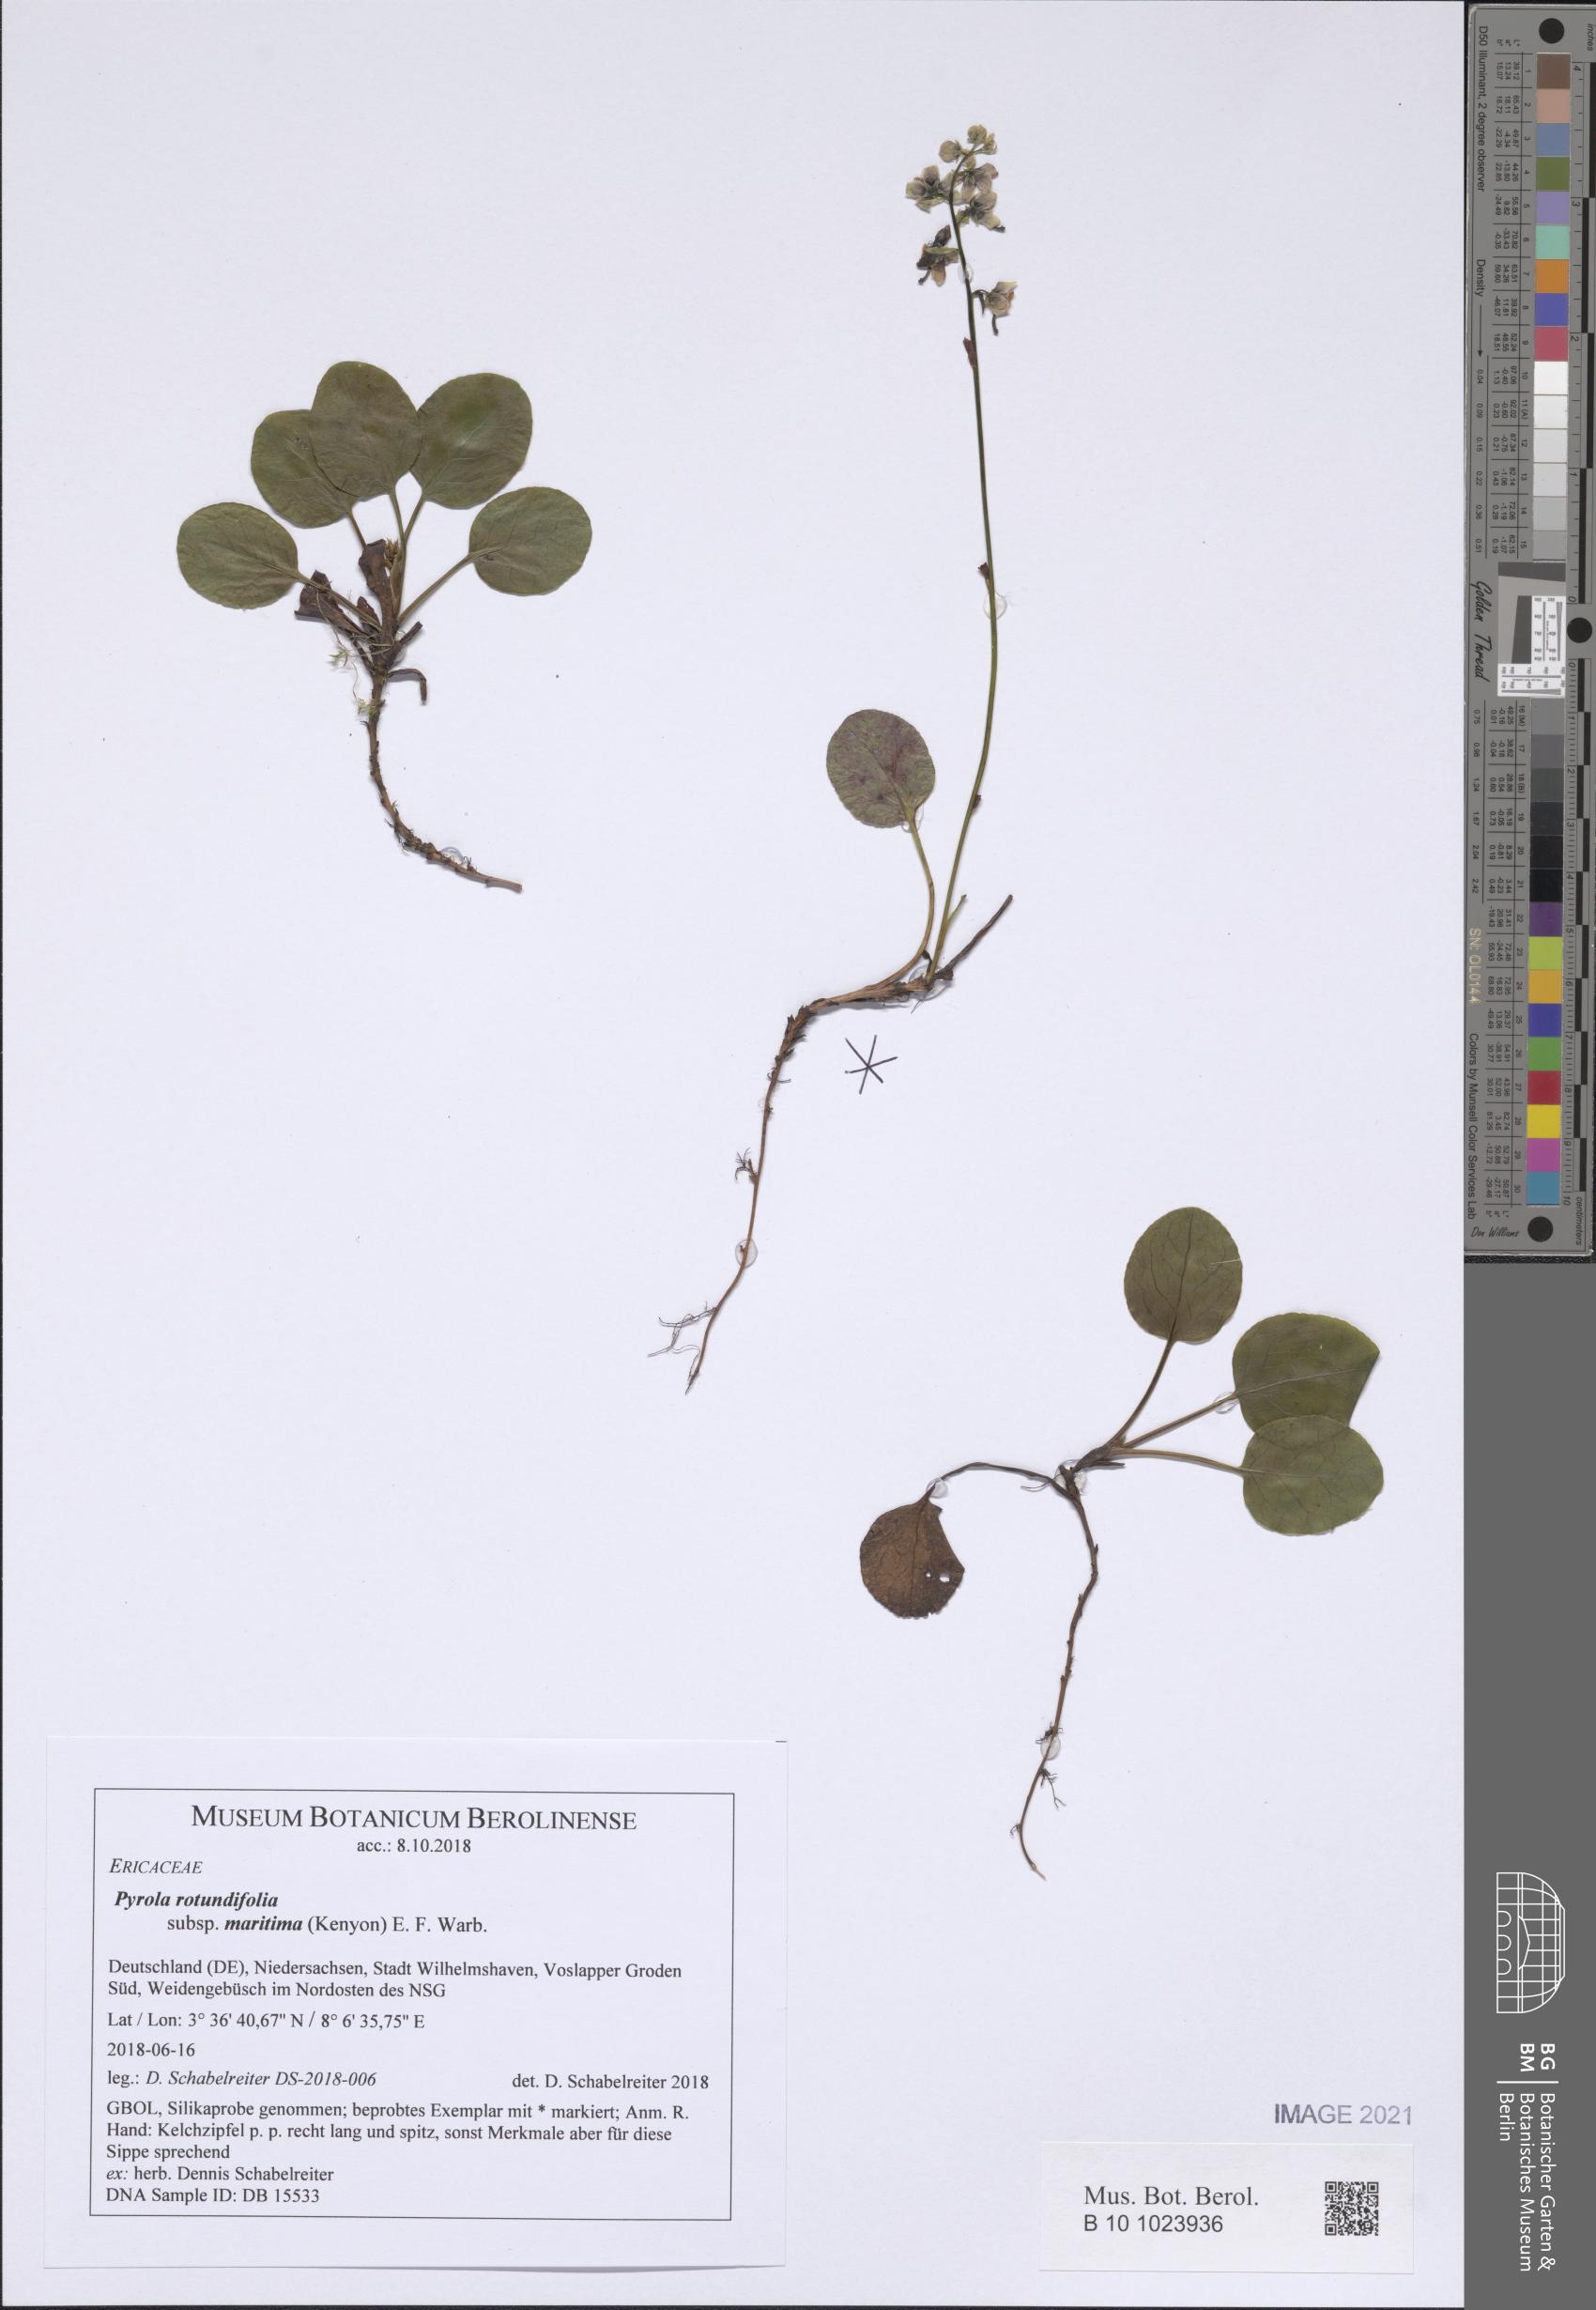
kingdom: Plantae
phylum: Tracheophyta
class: Magnoliopsida
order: Ericales
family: Ericaceae
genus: Pyrola
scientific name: Pyrola rotundifolia
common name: Round-leaved wintergreen
